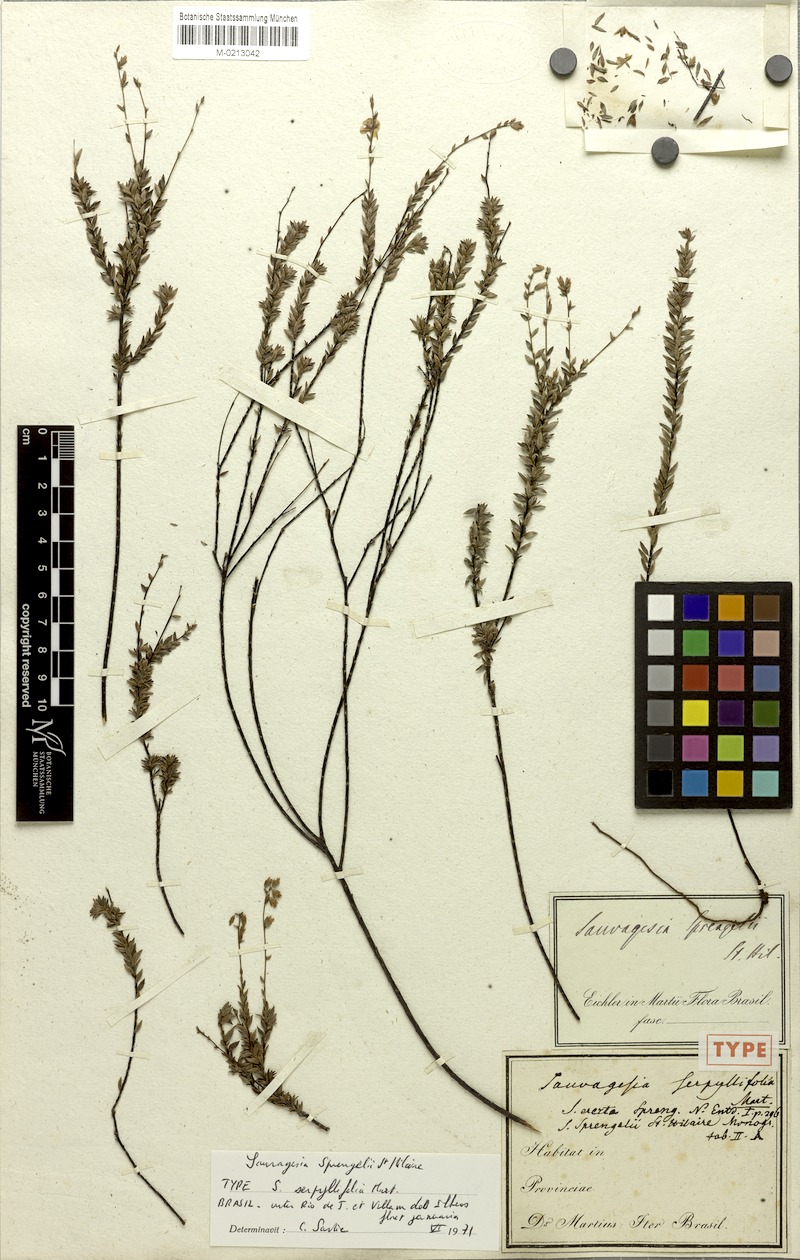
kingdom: Plantae
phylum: Tracheophyta
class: Magnoliopsida
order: Malpighiales
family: Ochnaceae
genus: Sauvagesia
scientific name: Sauvagesia sprengelii
